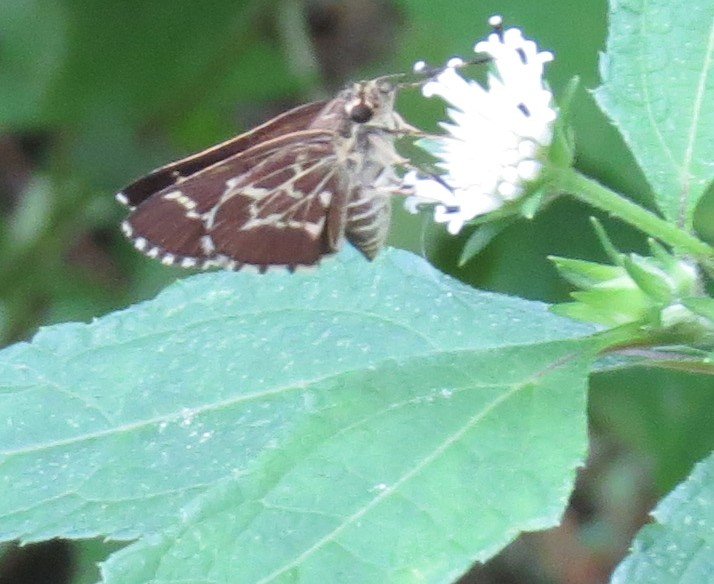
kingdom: Animalia
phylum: Arthropoda
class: Insecta
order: Lepidoptera
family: Hesperiidae
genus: Mastor
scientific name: Mastor aesculapius
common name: Lace-winged Roadside-Skipper
